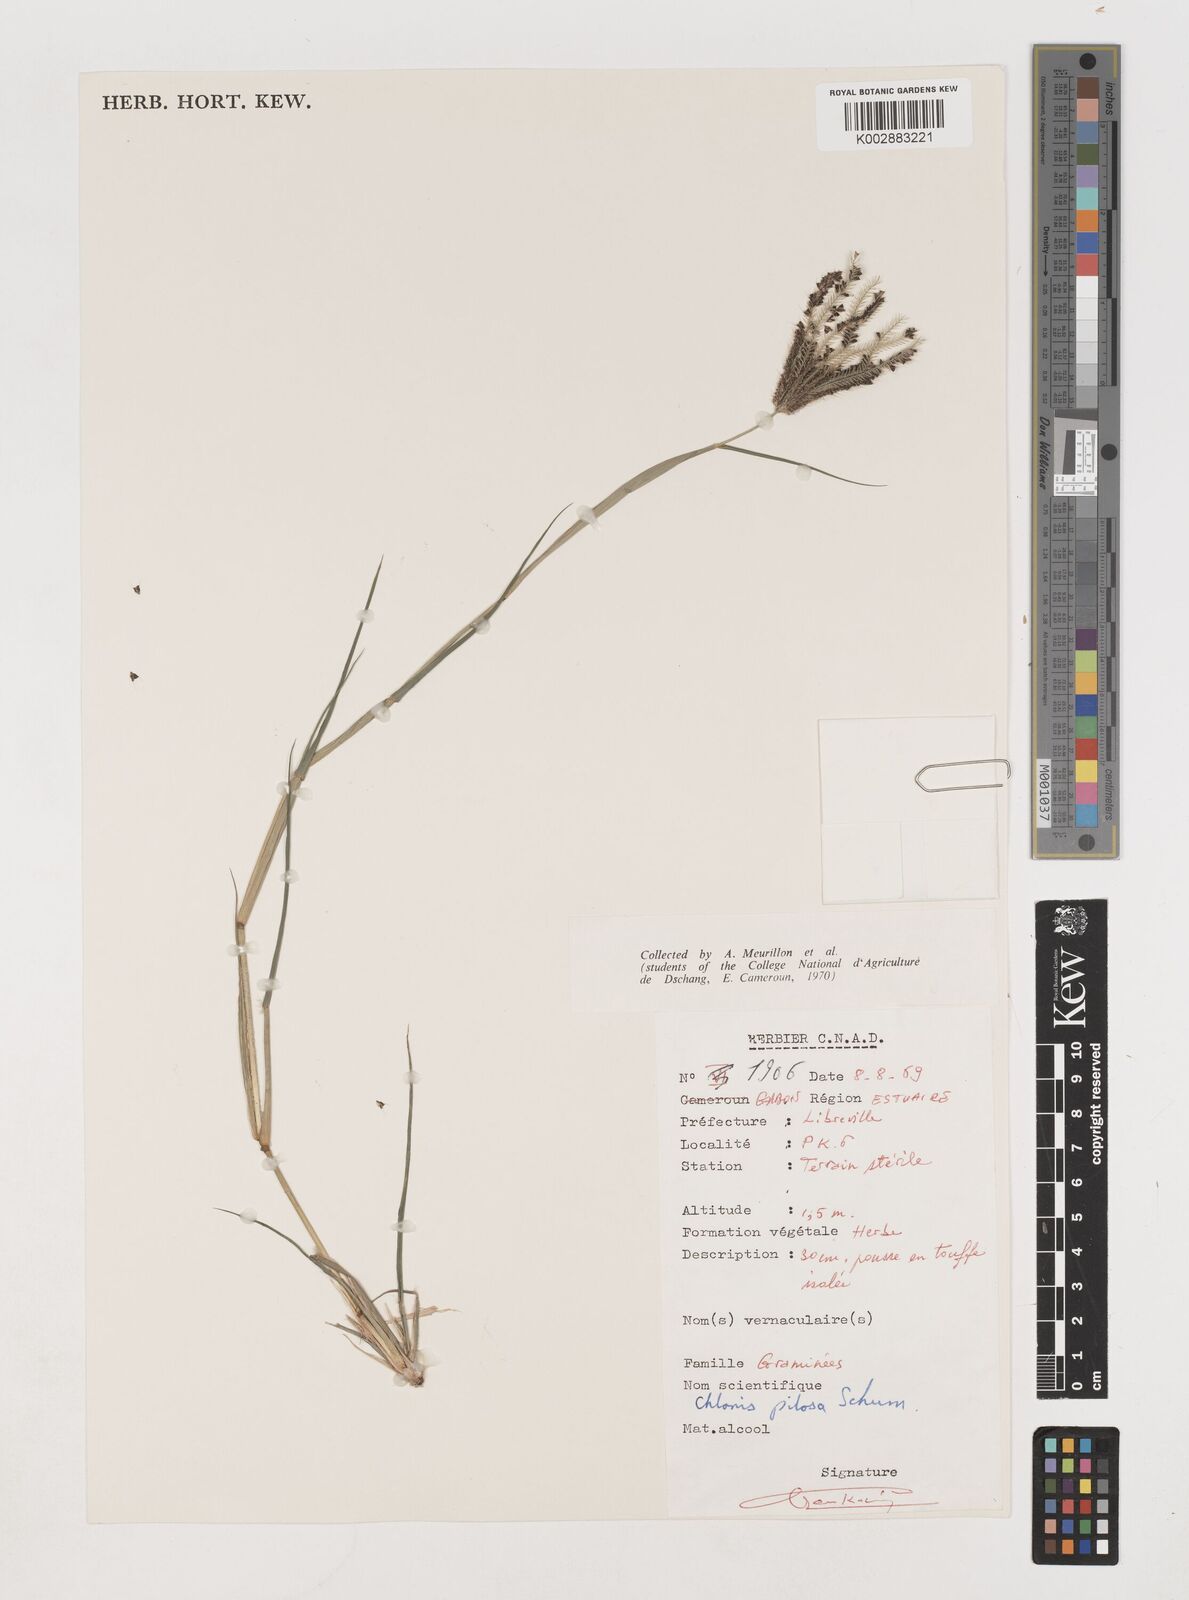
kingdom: Plantae
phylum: Tracheophyta
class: Liliopsida
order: Poales
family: Poaceae
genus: Chloris
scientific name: Chloris pilosa
